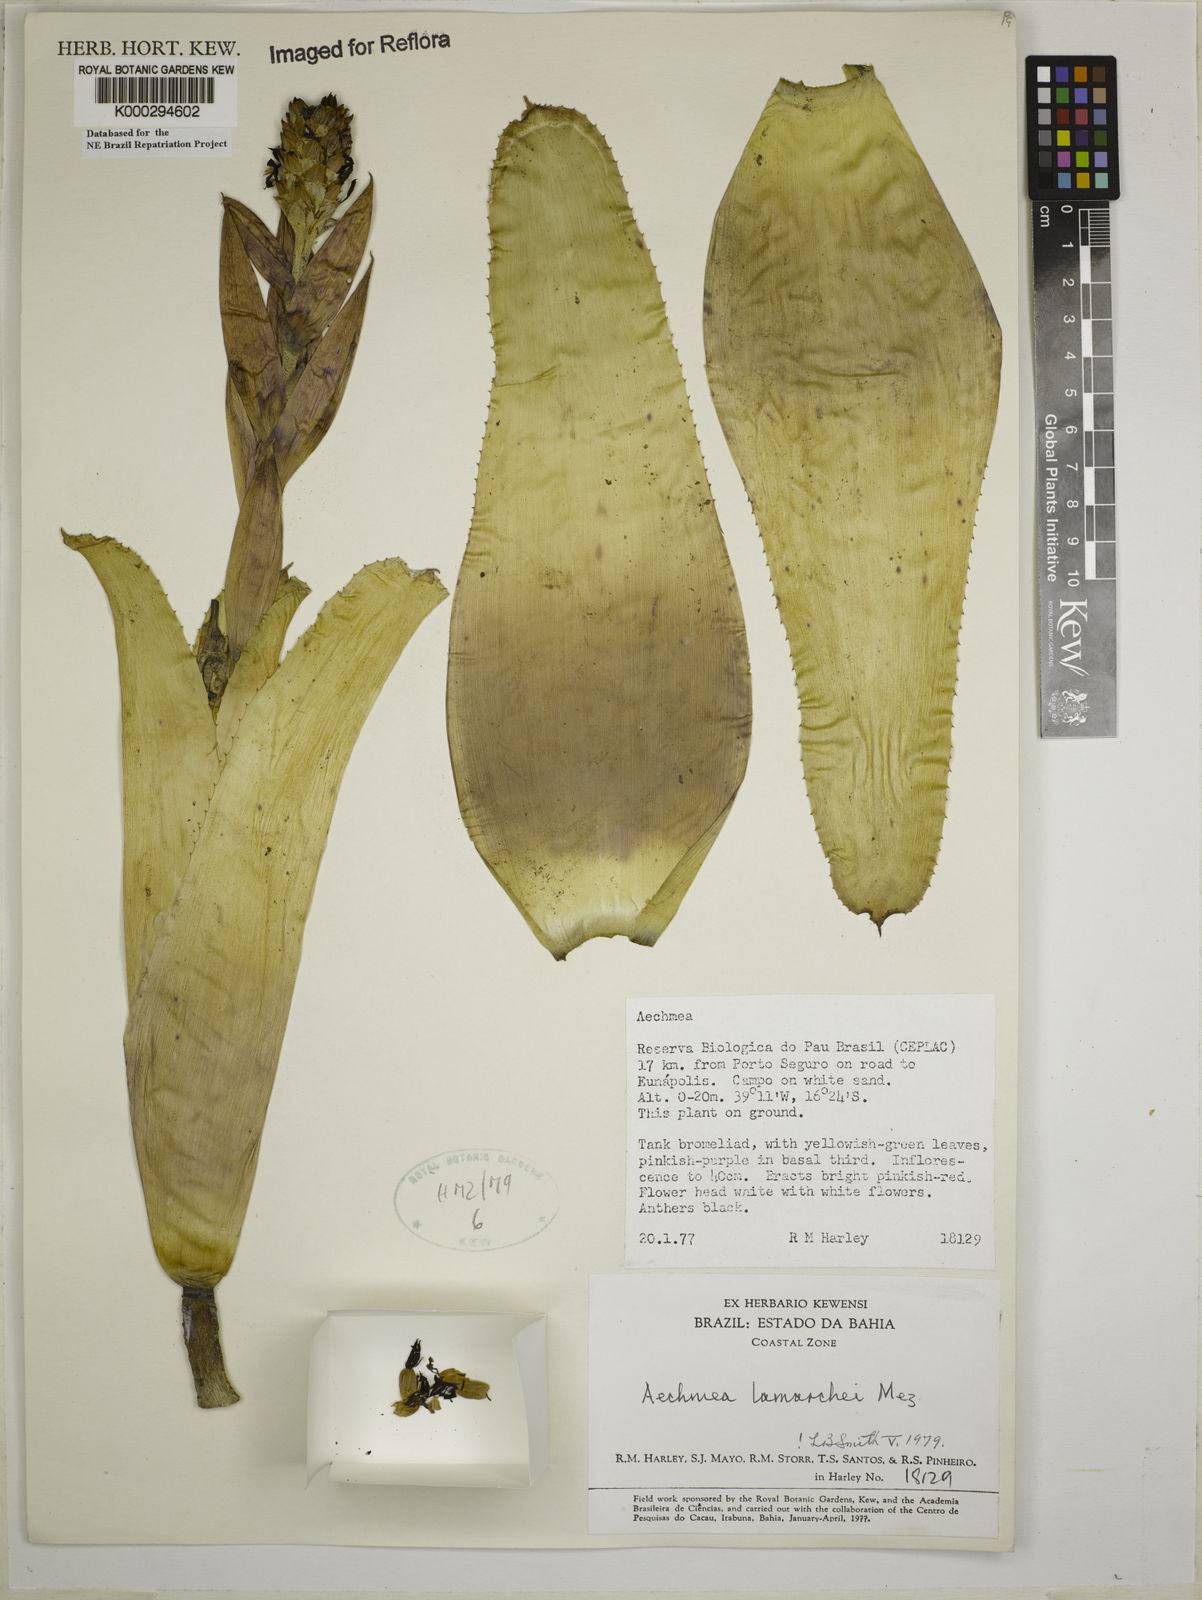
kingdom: Plantae
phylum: Tracheophyta
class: Liliopsida
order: Poales
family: Bromeliaceae
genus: Aechmea
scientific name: Aechmea lamarchei
